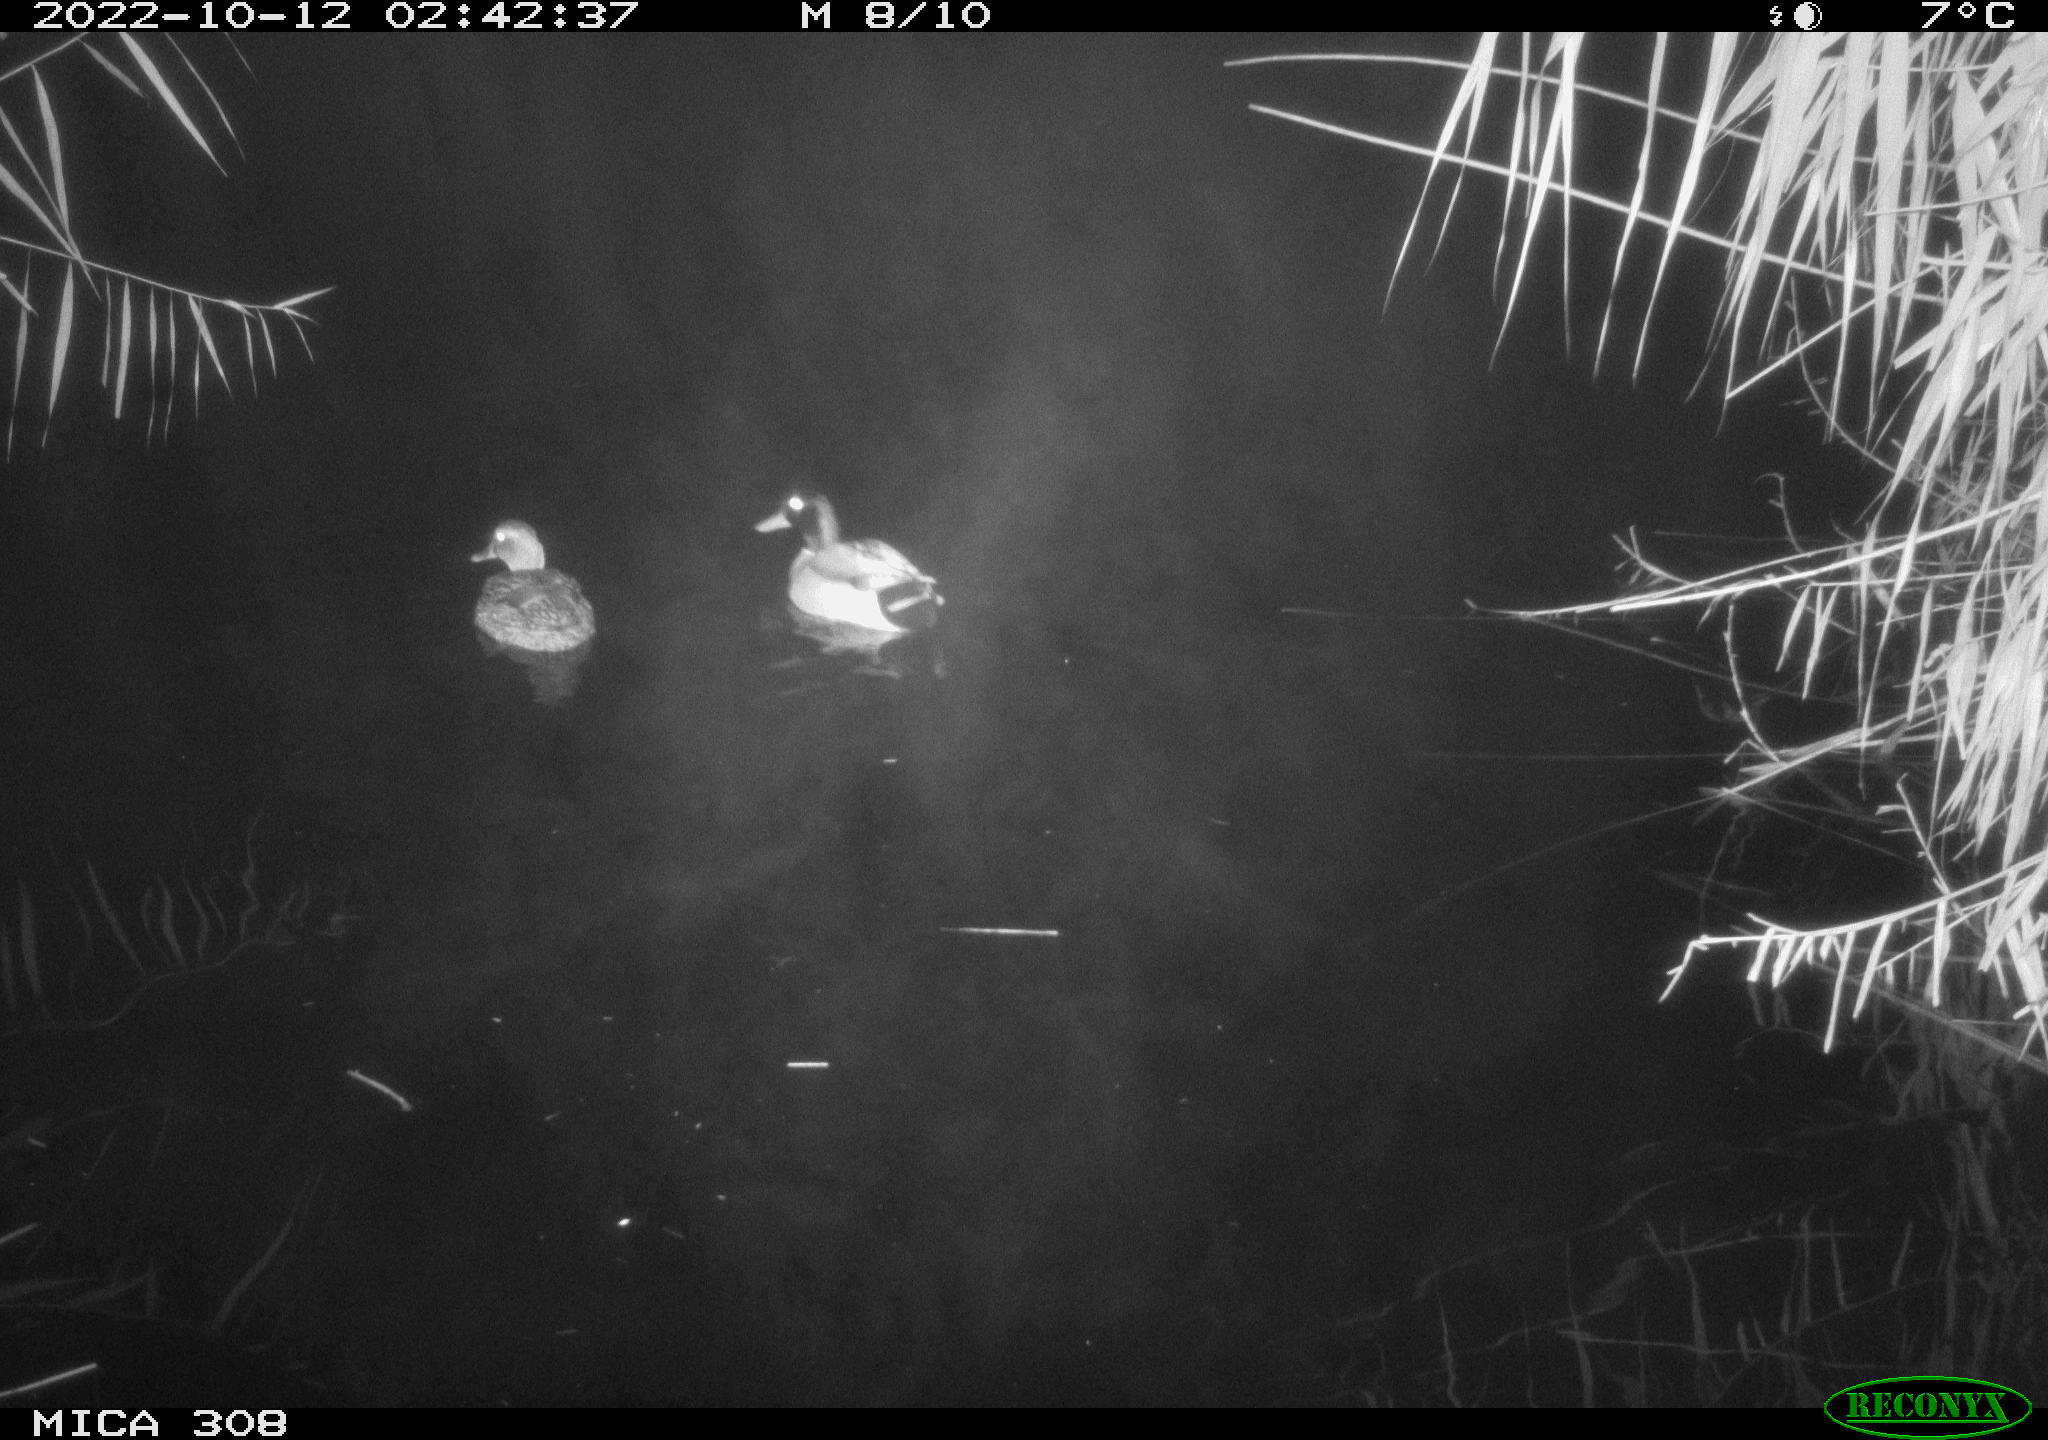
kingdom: Animalia
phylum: Chordata
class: Aves
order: Anseriformes
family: Anatidae
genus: Anas
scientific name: Anas
